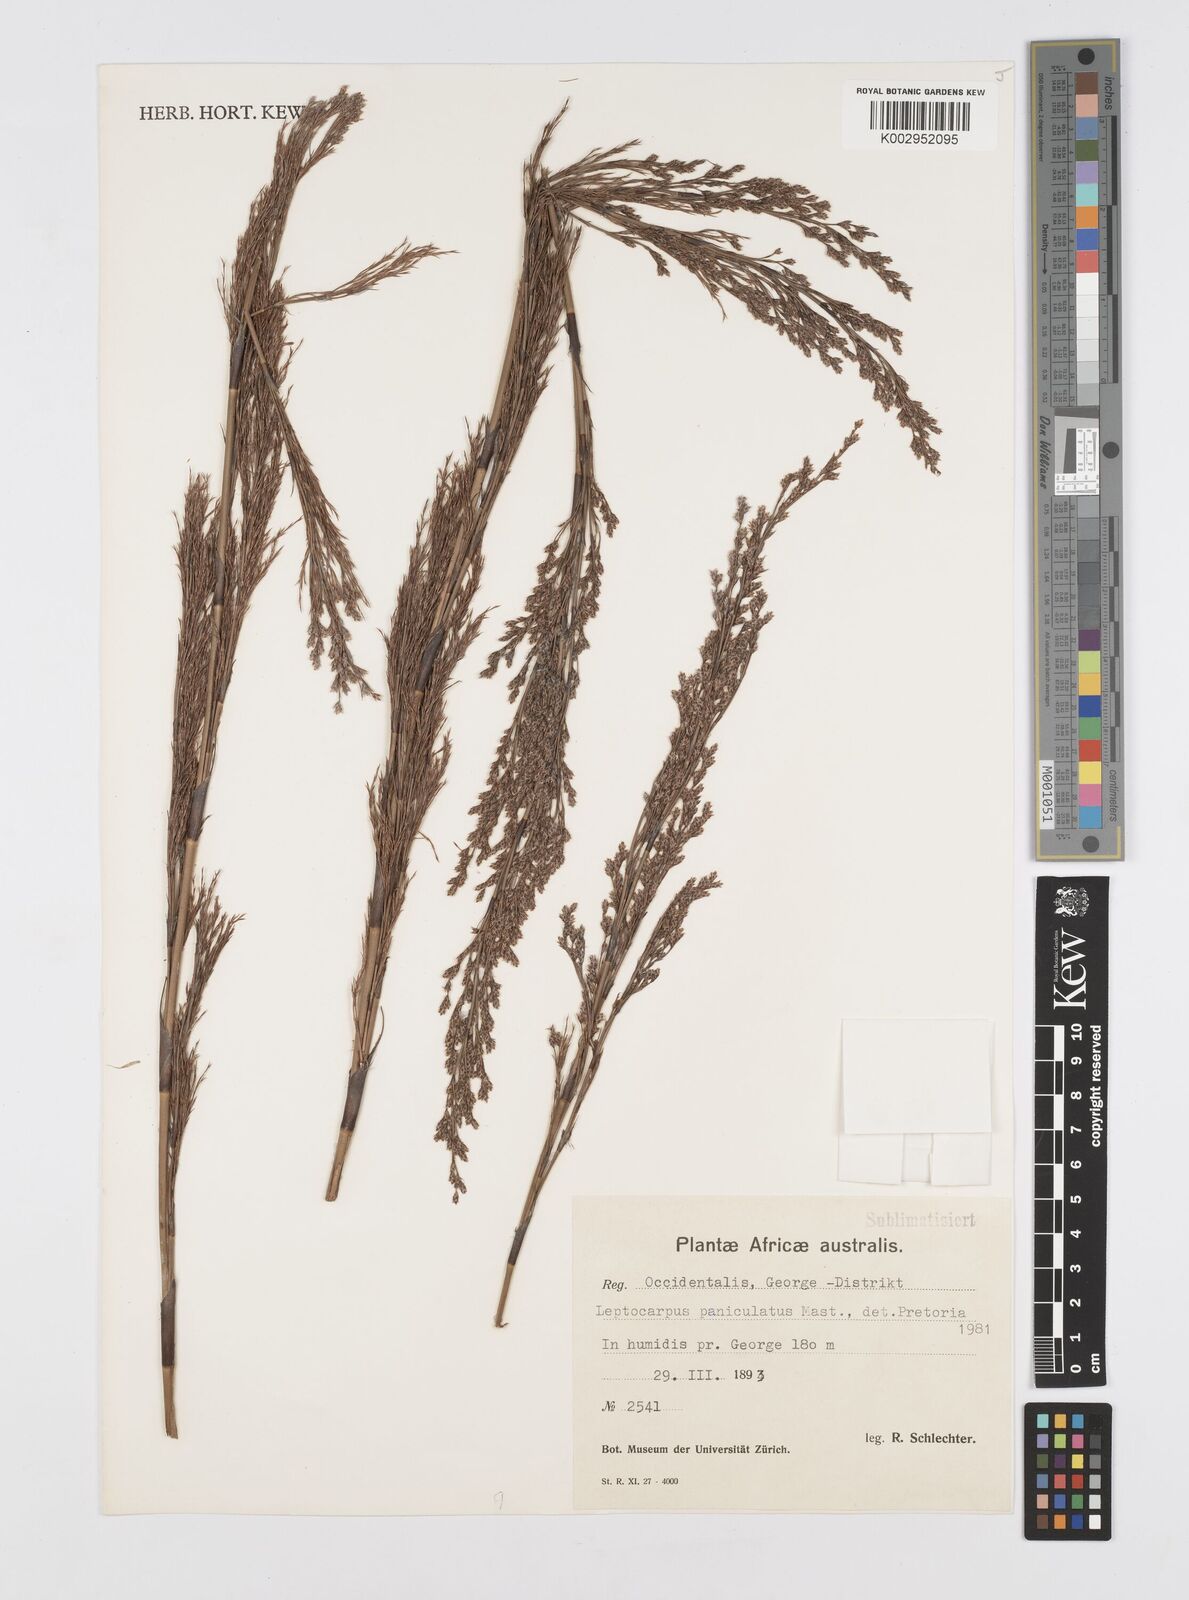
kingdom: Plantae
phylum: Tracheophyta
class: Liliopsida
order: Poales
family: Restionaceae
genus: Restio
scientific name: Restio paniculatus
